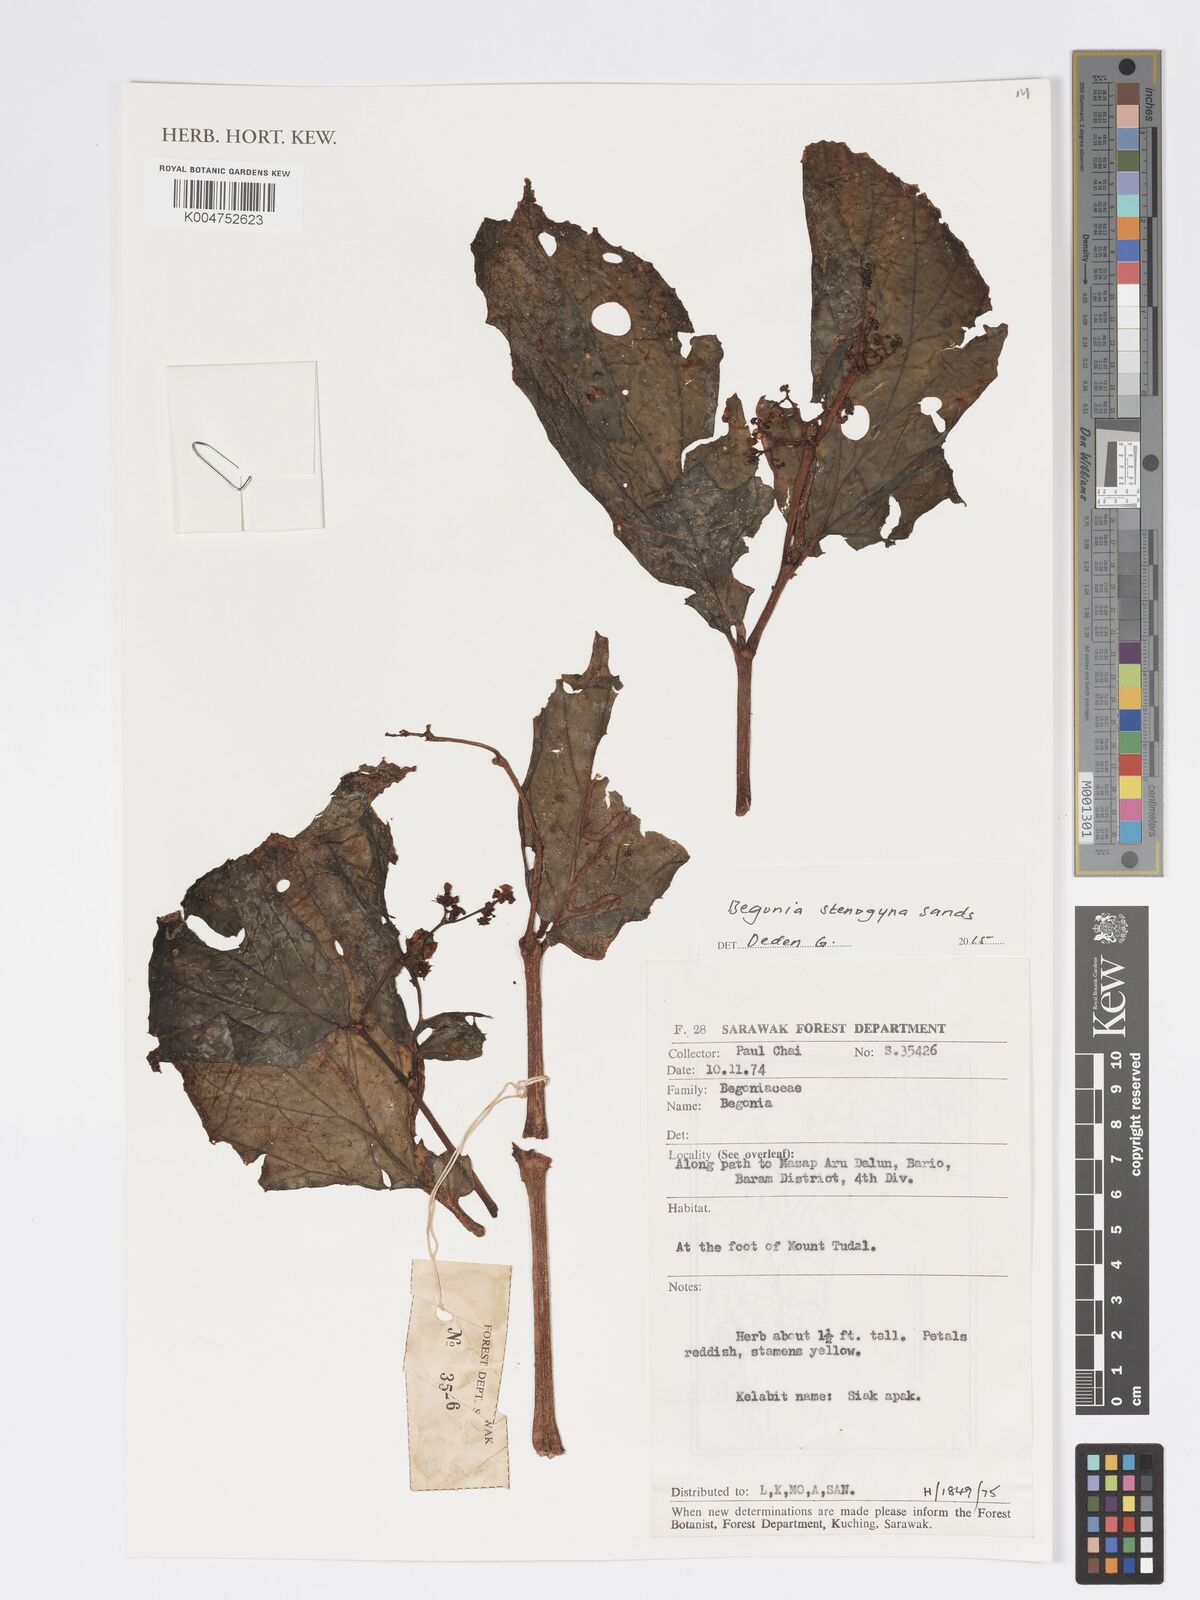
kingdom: Plantae
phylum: Tracheophyta
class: Magnoliopsida
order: Cucurbitales
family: Begoniaceae
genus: Begonia
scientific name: Begonia stenogyna
